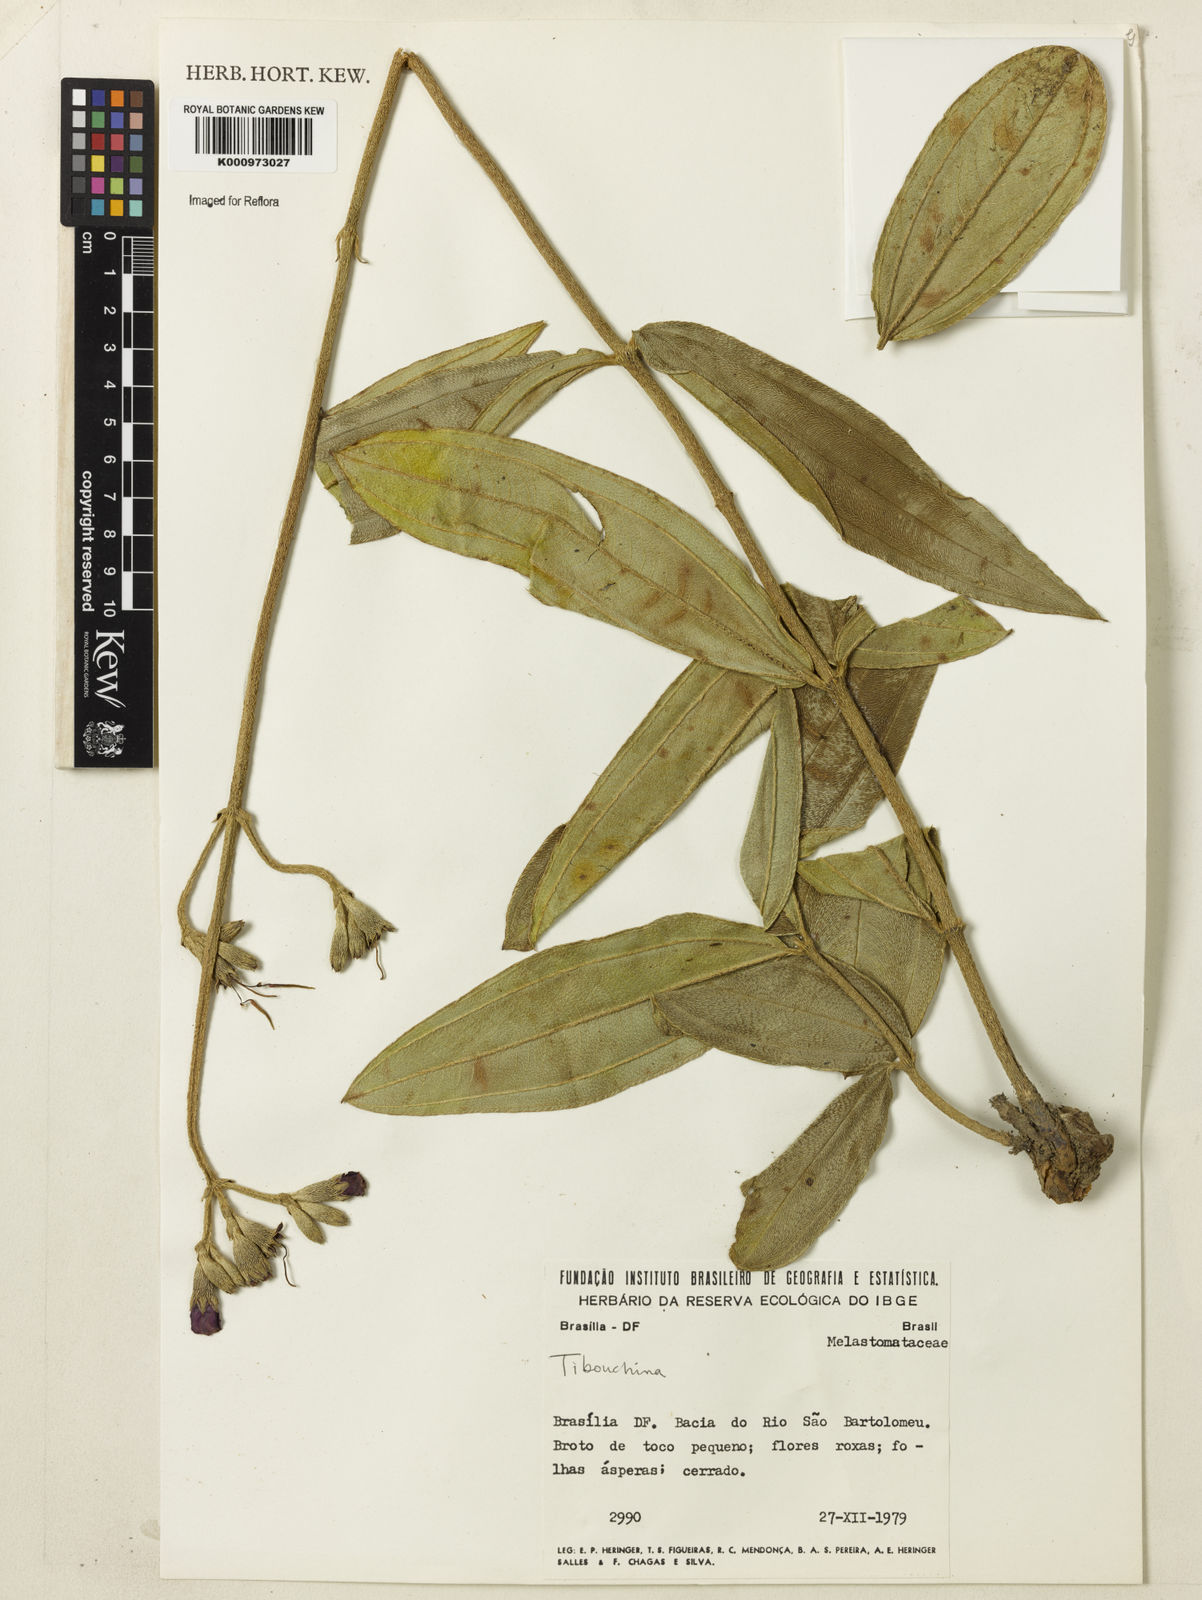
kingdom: Plantae
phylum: Tracheophyta
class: Magnoliopsida
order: Myrtales
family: Melastomataceae
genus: Tibouchina
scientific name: Tibouchina
